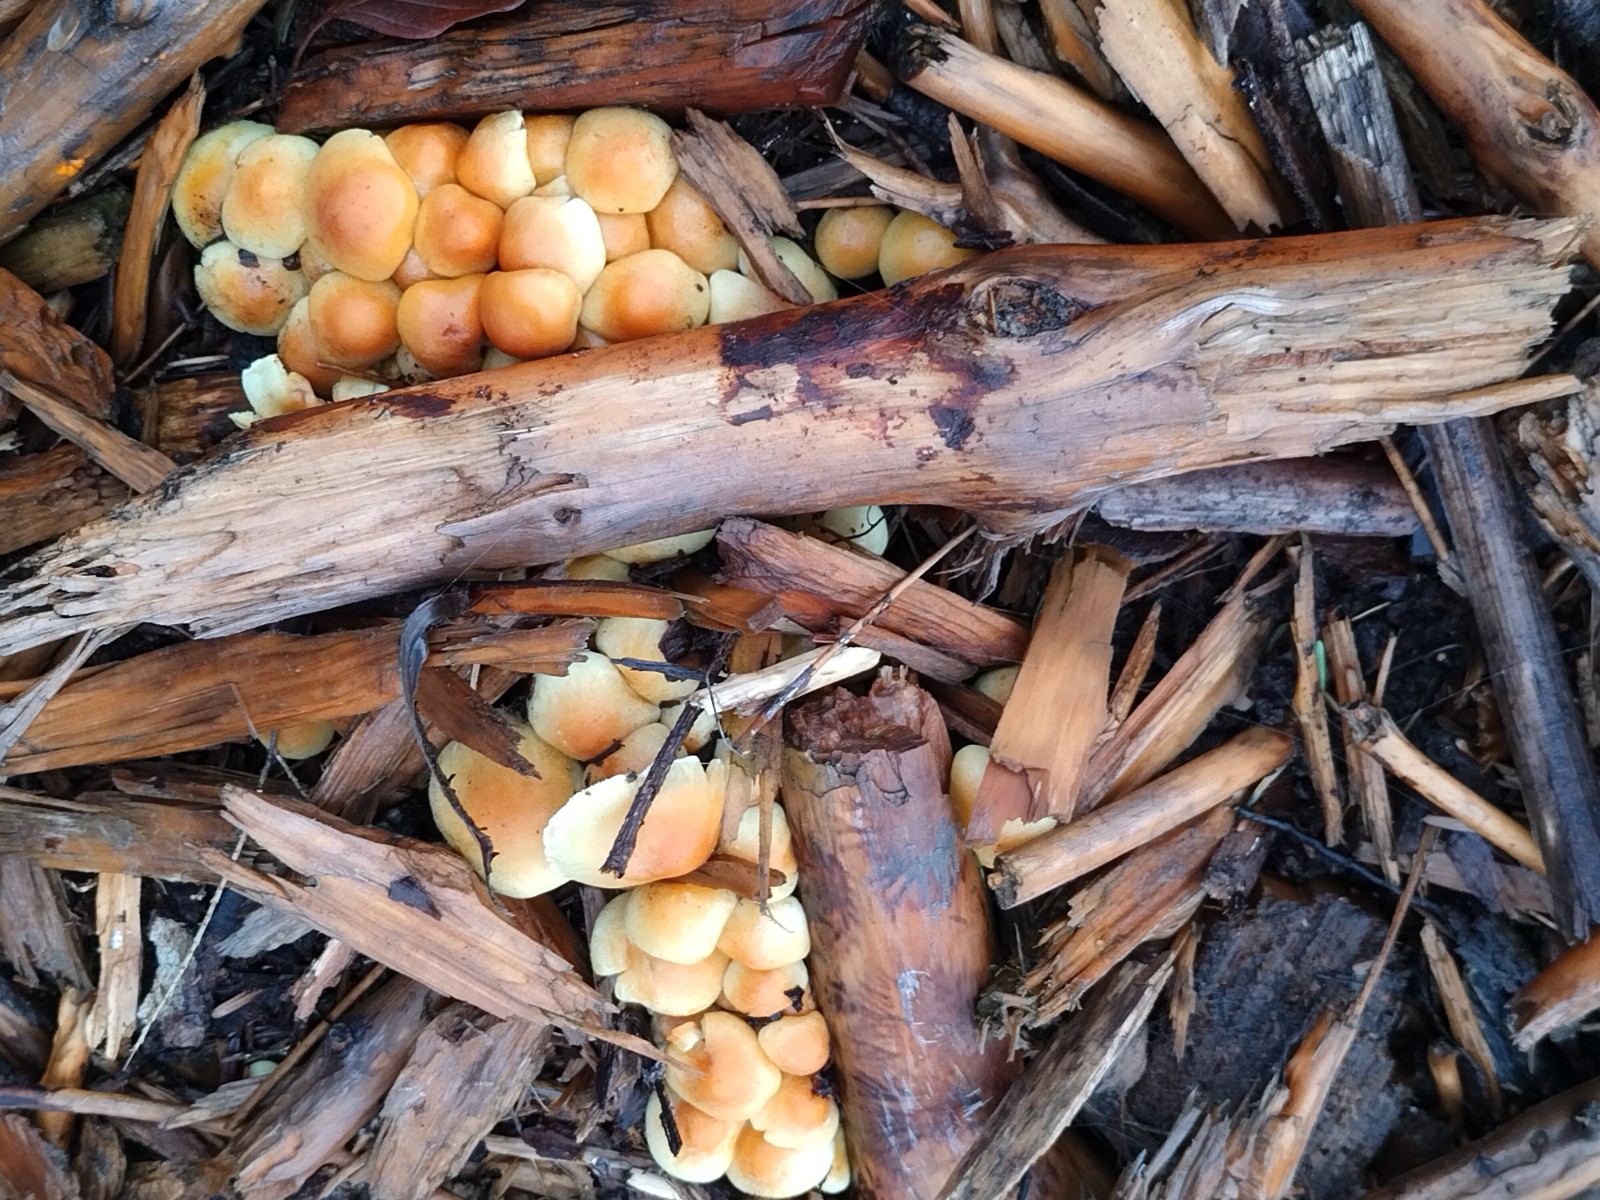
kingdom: Fungi
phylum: Basidiomycota
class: Agaricomycetes
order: Agaricales
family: Strophariaceae
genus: Hypholoma
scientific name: Hypholoma fasciculare
